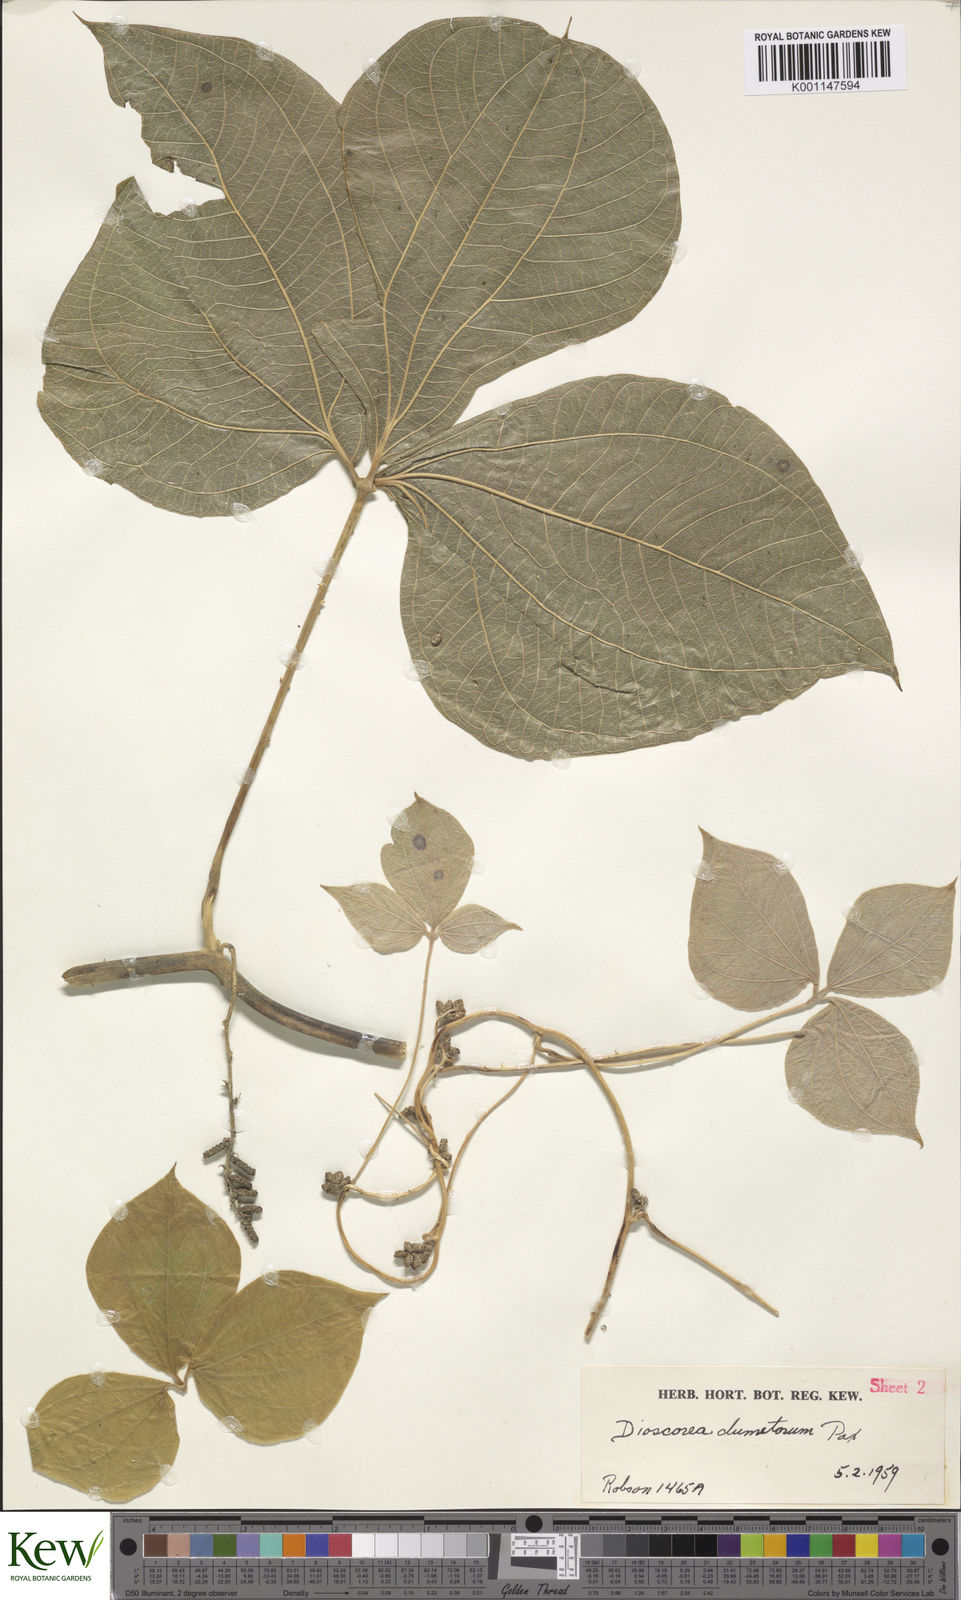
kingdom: Plantae
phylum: Tracheophyta
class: Liliopsida
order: Dioscoreales
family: Dioscoreaceae
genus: Dioscorea
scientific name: Dioscorea dumetorum
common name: African bitter yam
